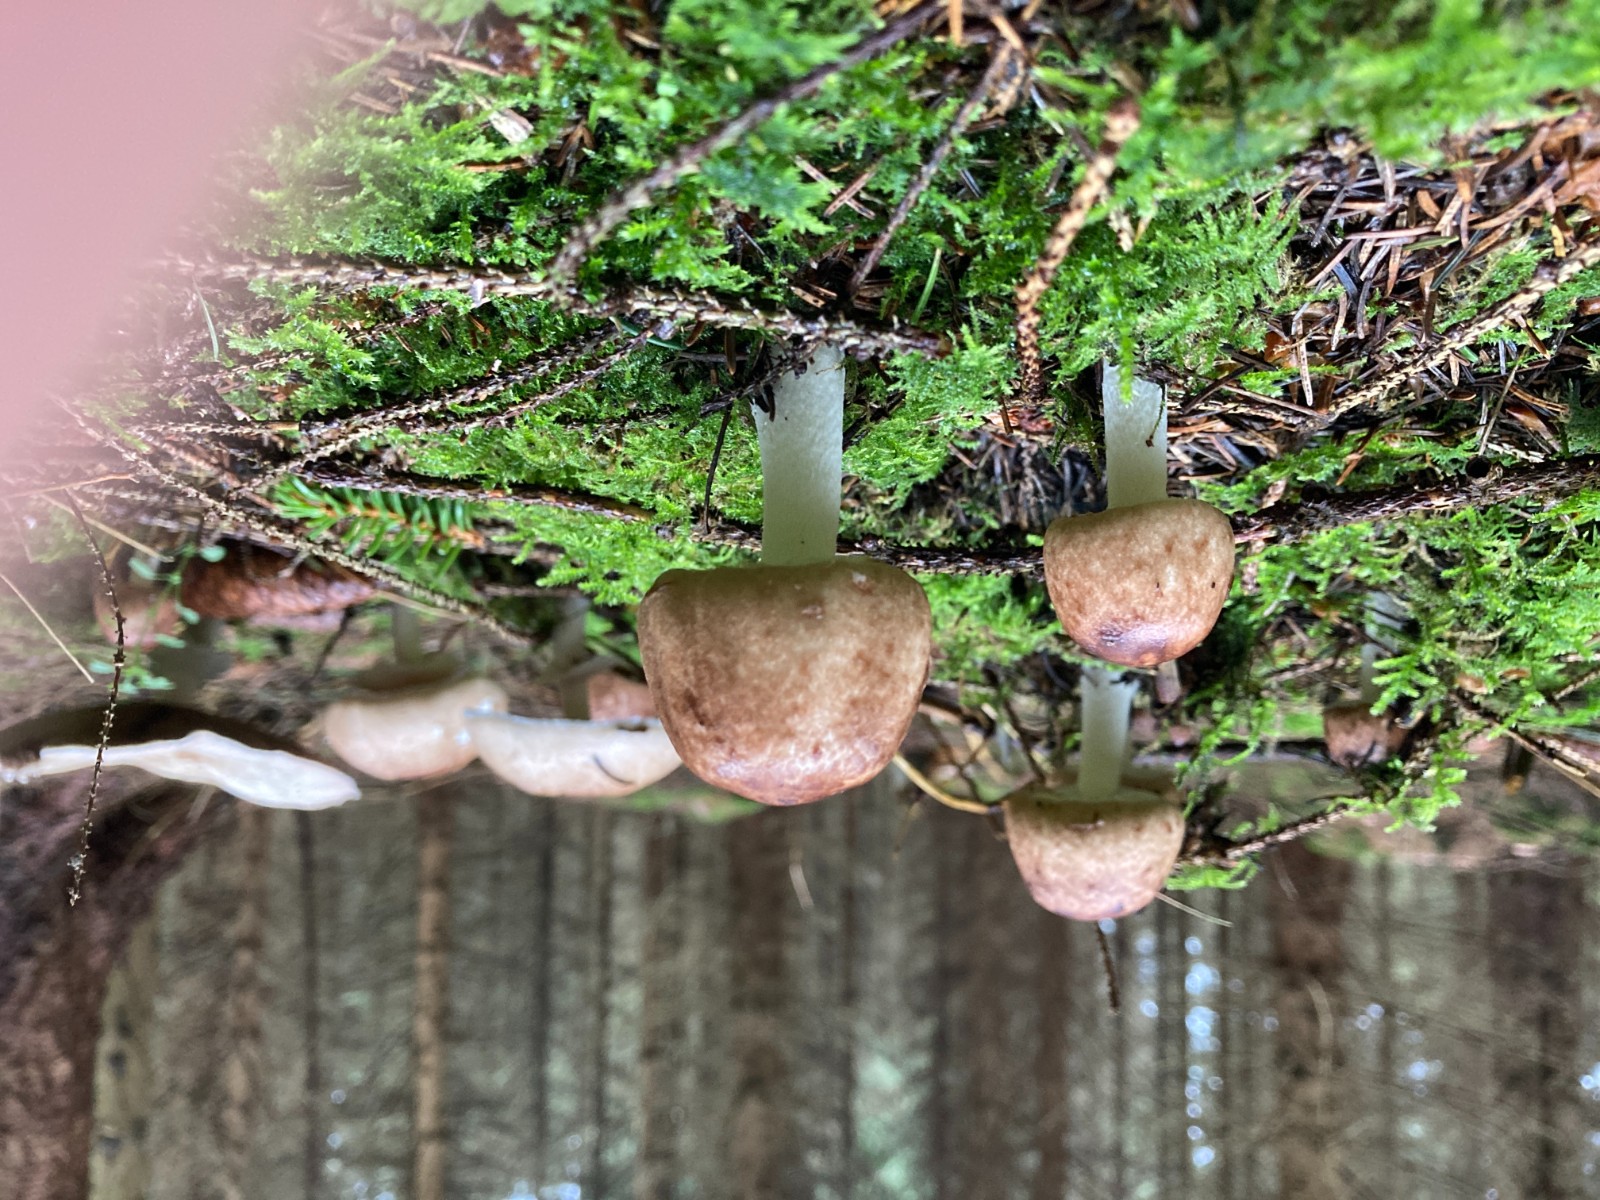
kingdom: Fungi
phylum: Basidiomycota
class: Agaricomycetes
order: Agaricales
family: Agaricaceae
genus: Agaricus
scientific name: Agaricus
